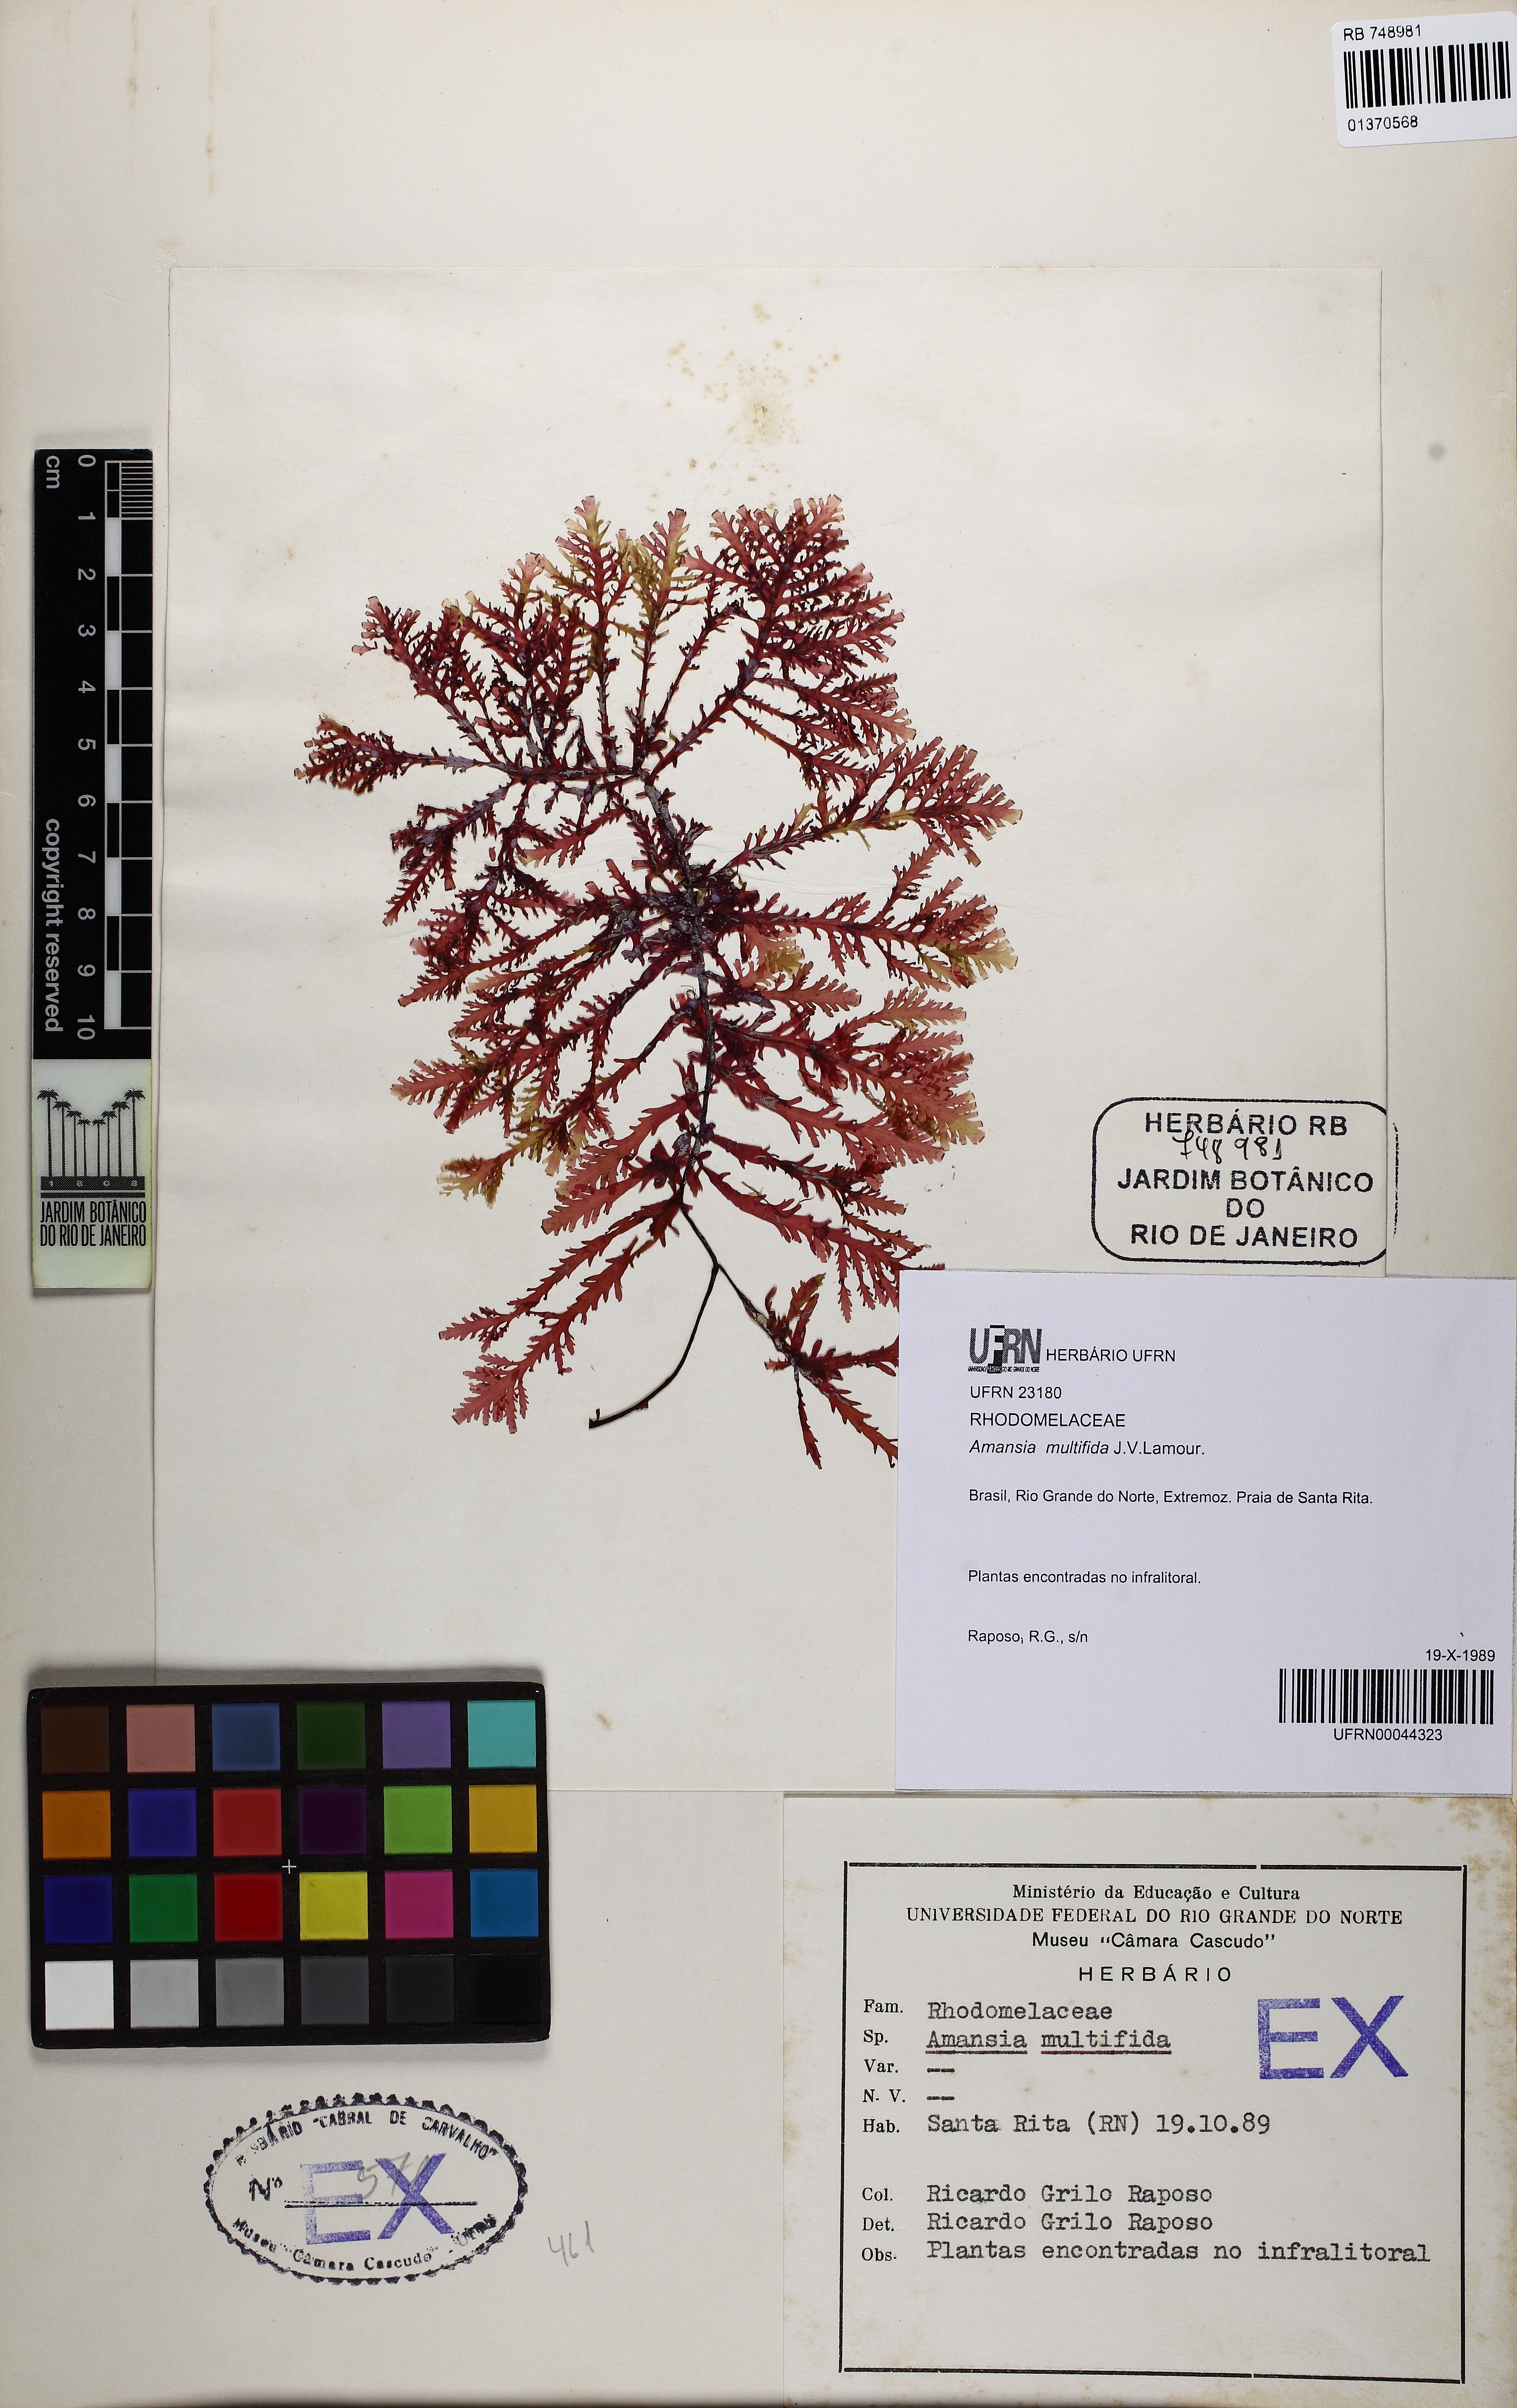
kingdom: Plantae
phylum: Rhodophyta
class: Florideophyceae
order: Ceramiales
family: Rhodomelaceae
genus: Amansia
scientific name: Amansia multifida
